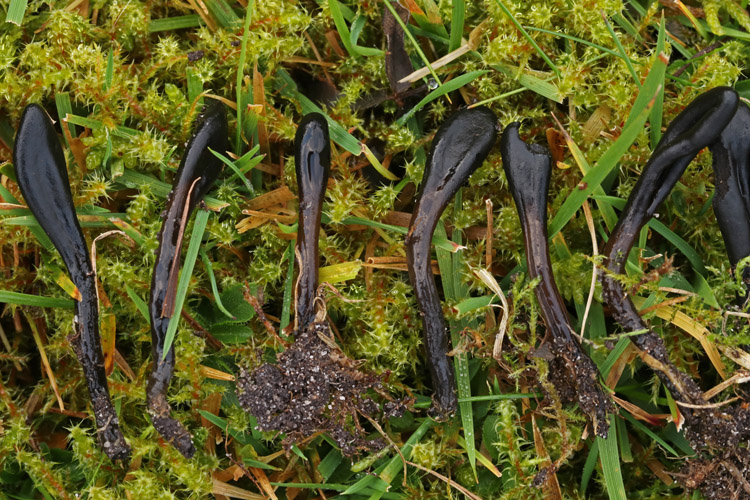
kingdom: Fungi
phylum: Ascomycota
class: Geoglossomycetes
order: Geoglossales
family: Geoglossaceae
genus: Glutinoglossum
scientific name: Glutinoglossum glutinosum
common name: slimet jordtunge
